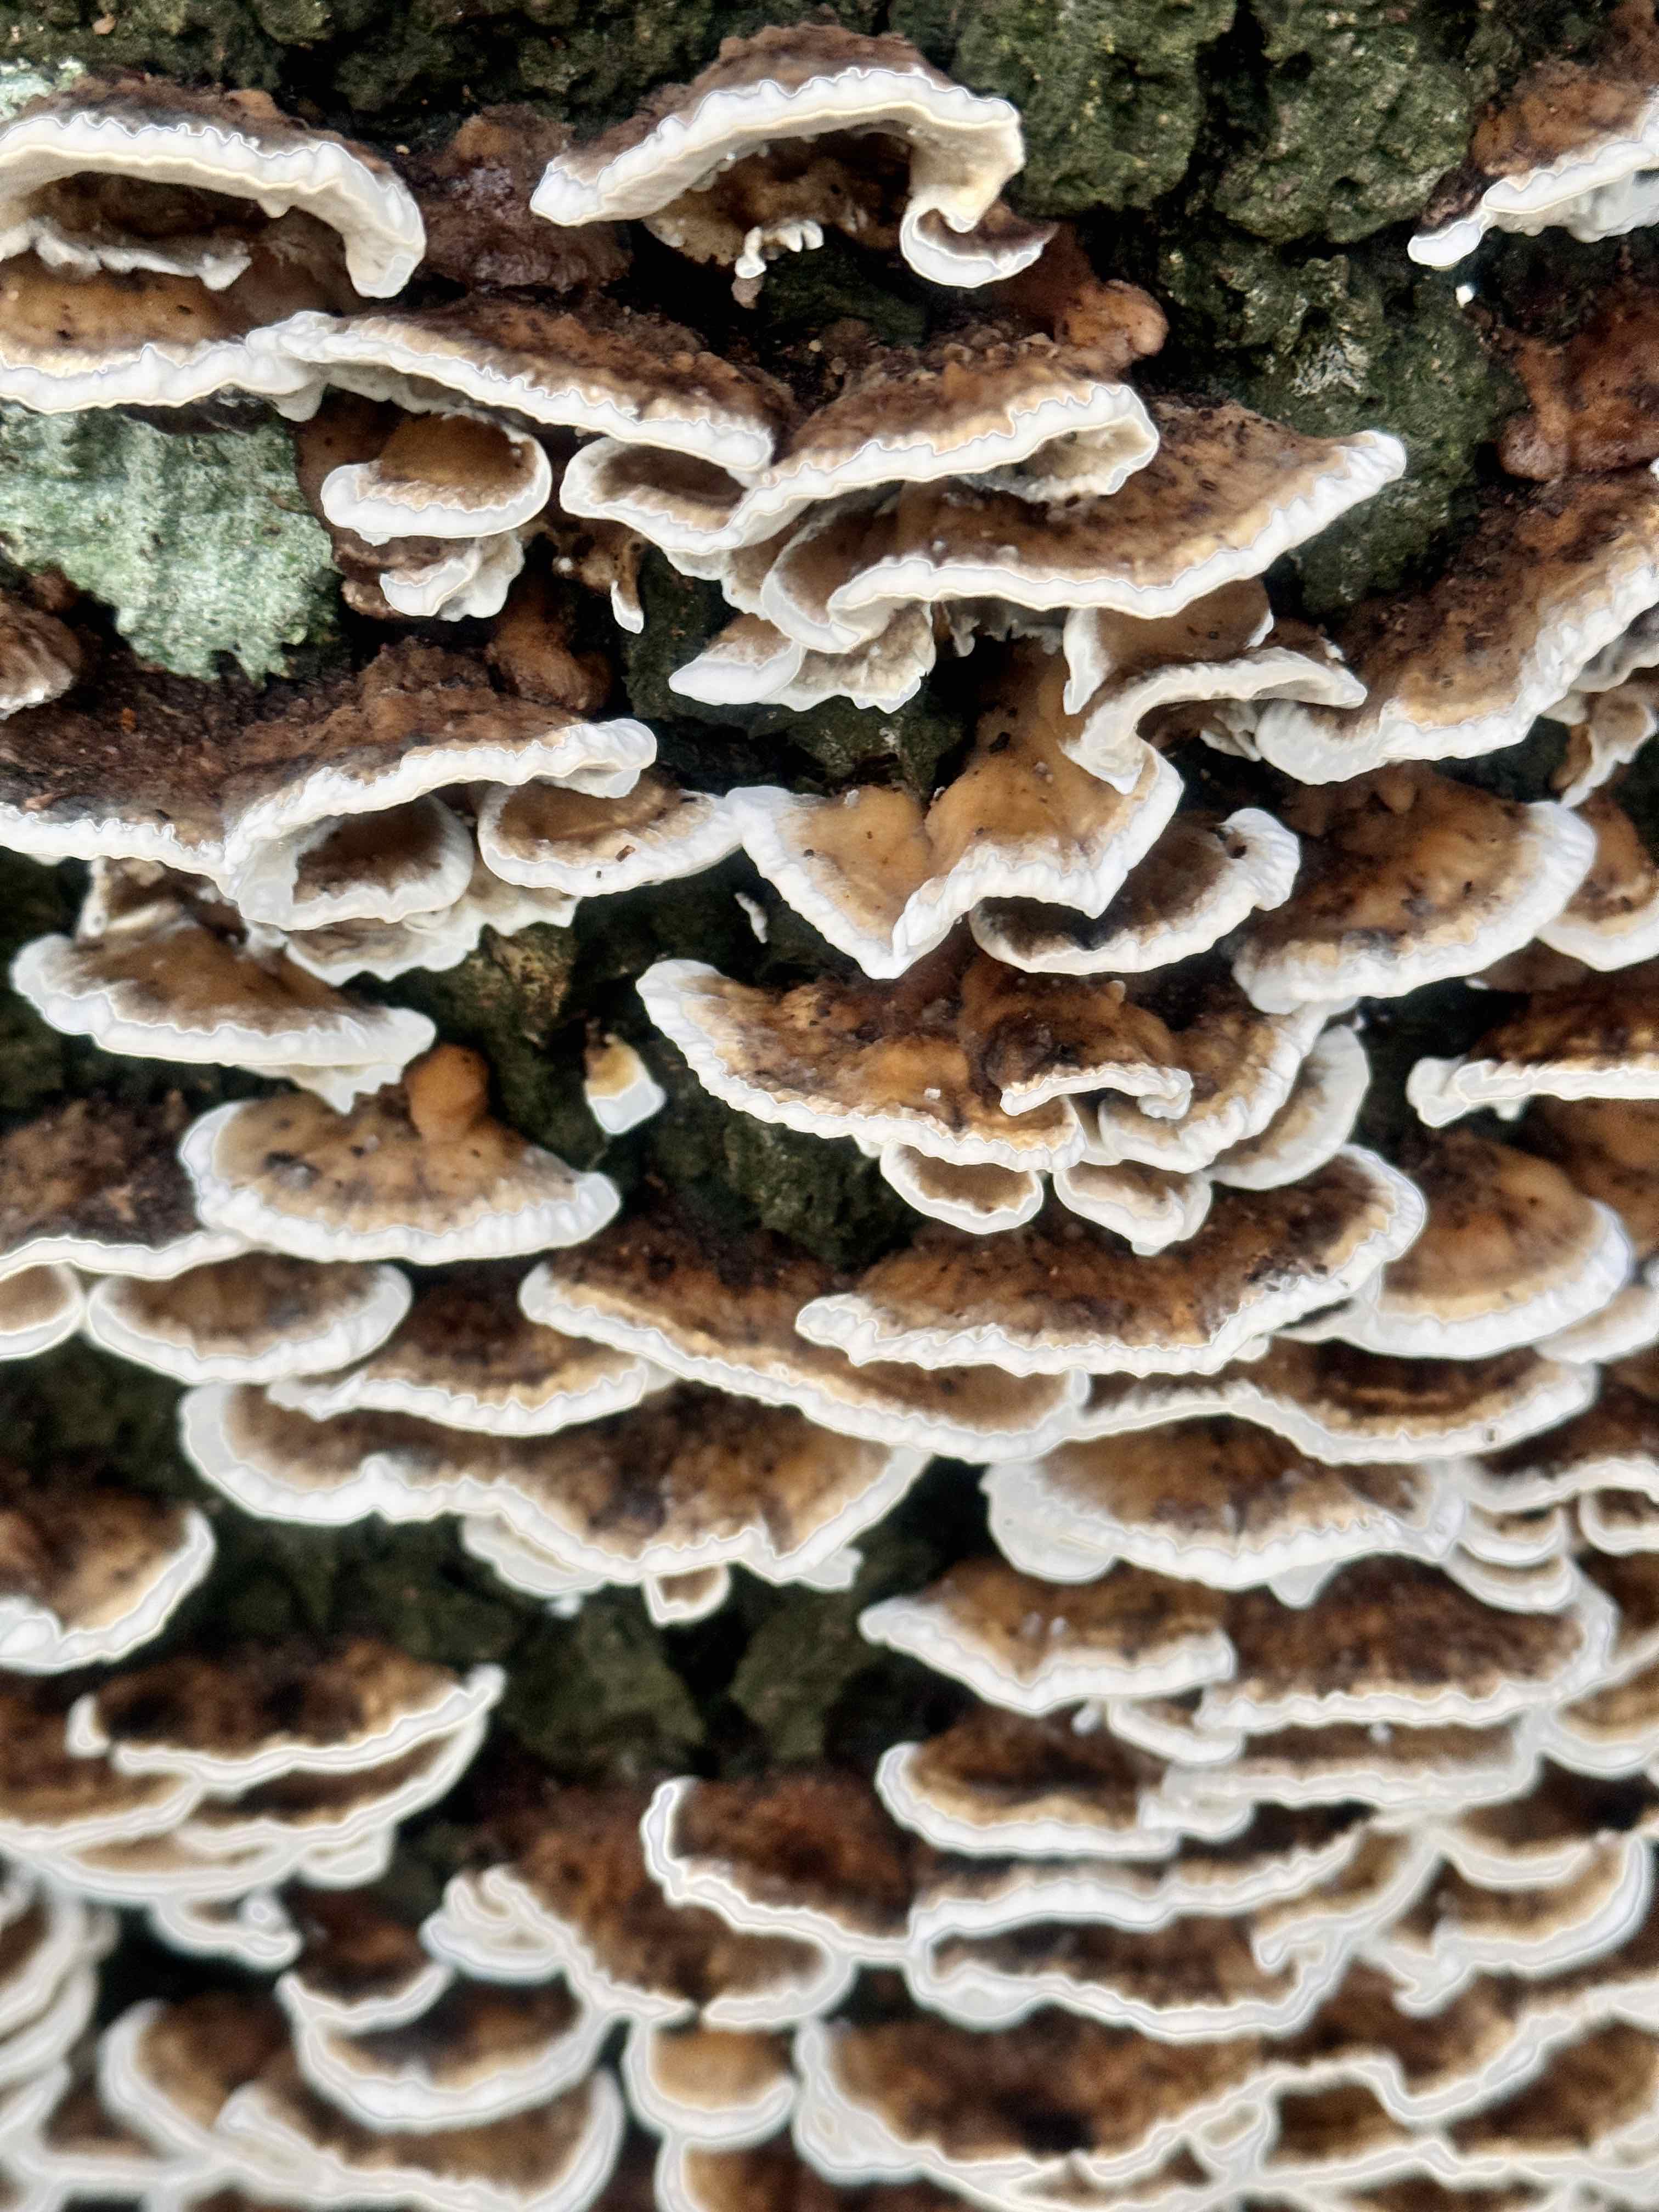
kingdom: Fungi
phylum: Basidiomycota
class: Agaricomycetes
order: Polyporales
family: Phanerochaetaceae
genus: Bjerkandera
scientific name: Bjerkandera adusta
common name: sveden sodporesvamp
